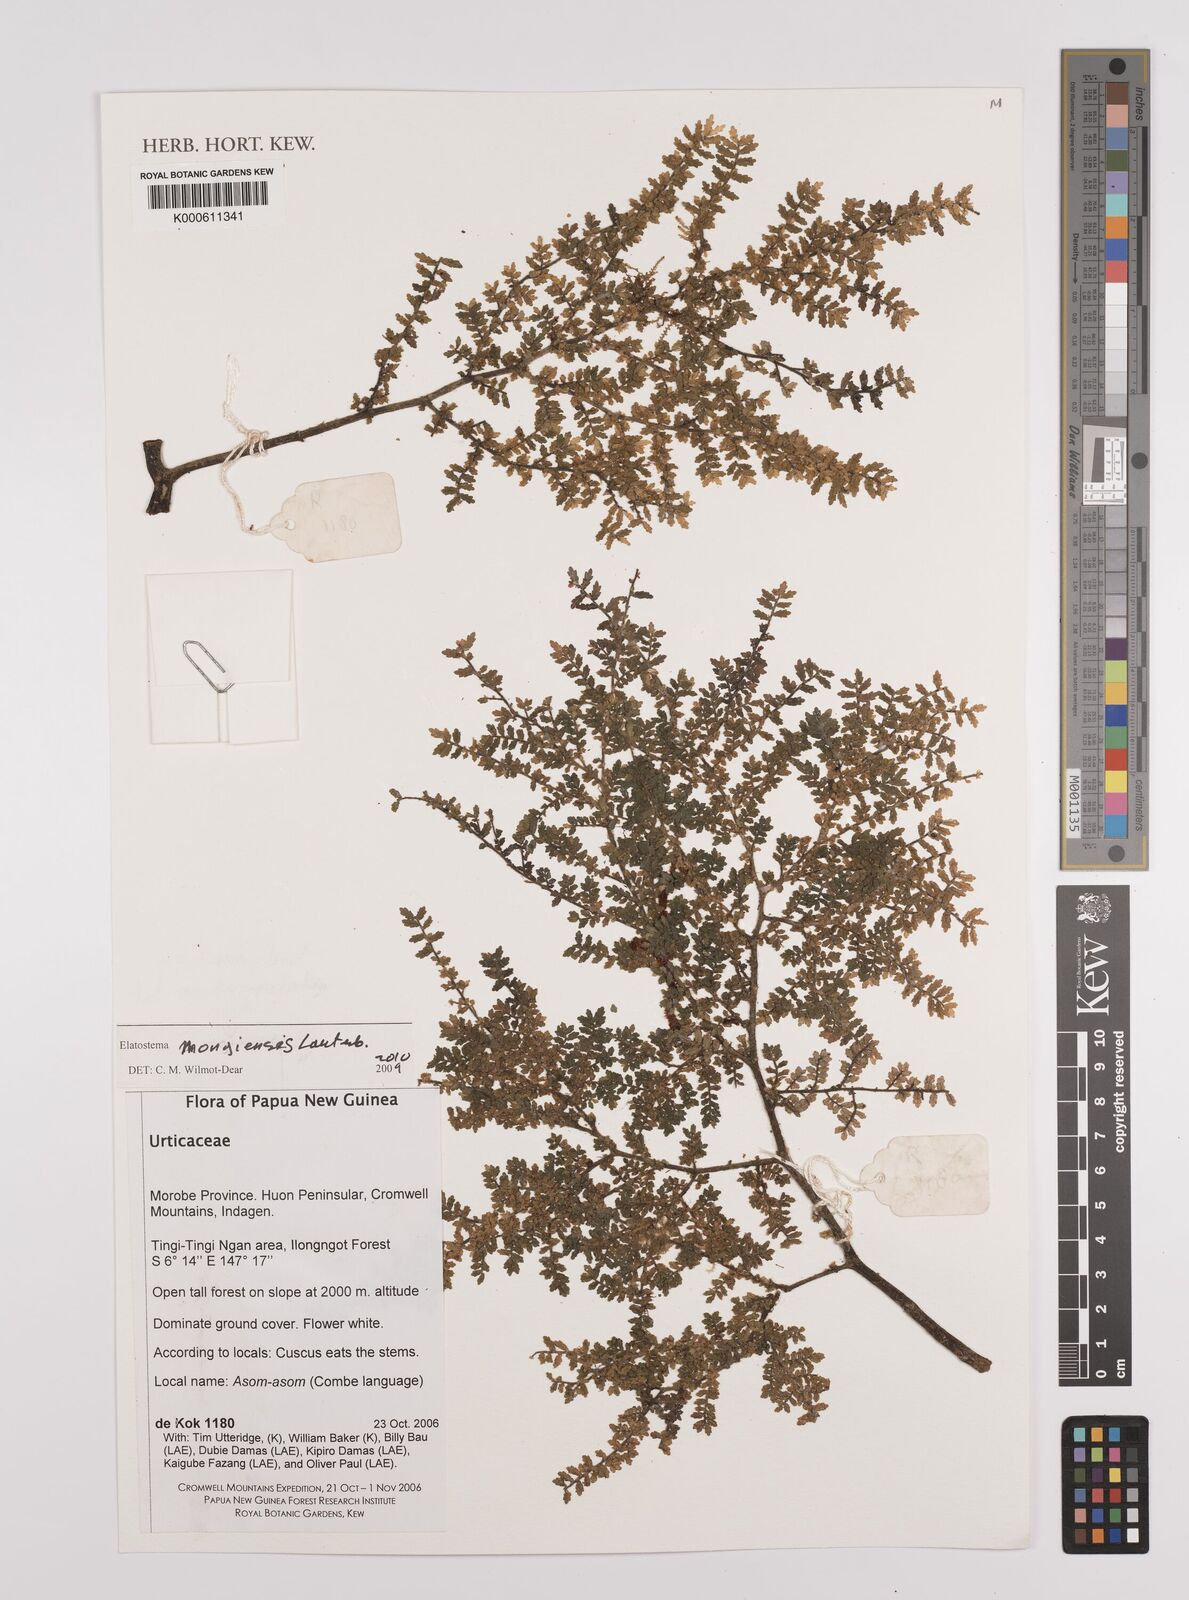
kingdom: Plantae
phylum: Tracheophyta
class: Magnoliopsida
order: Rosales
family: Urticaceae
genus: Elatostema
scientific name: Elatostema mongiensis
